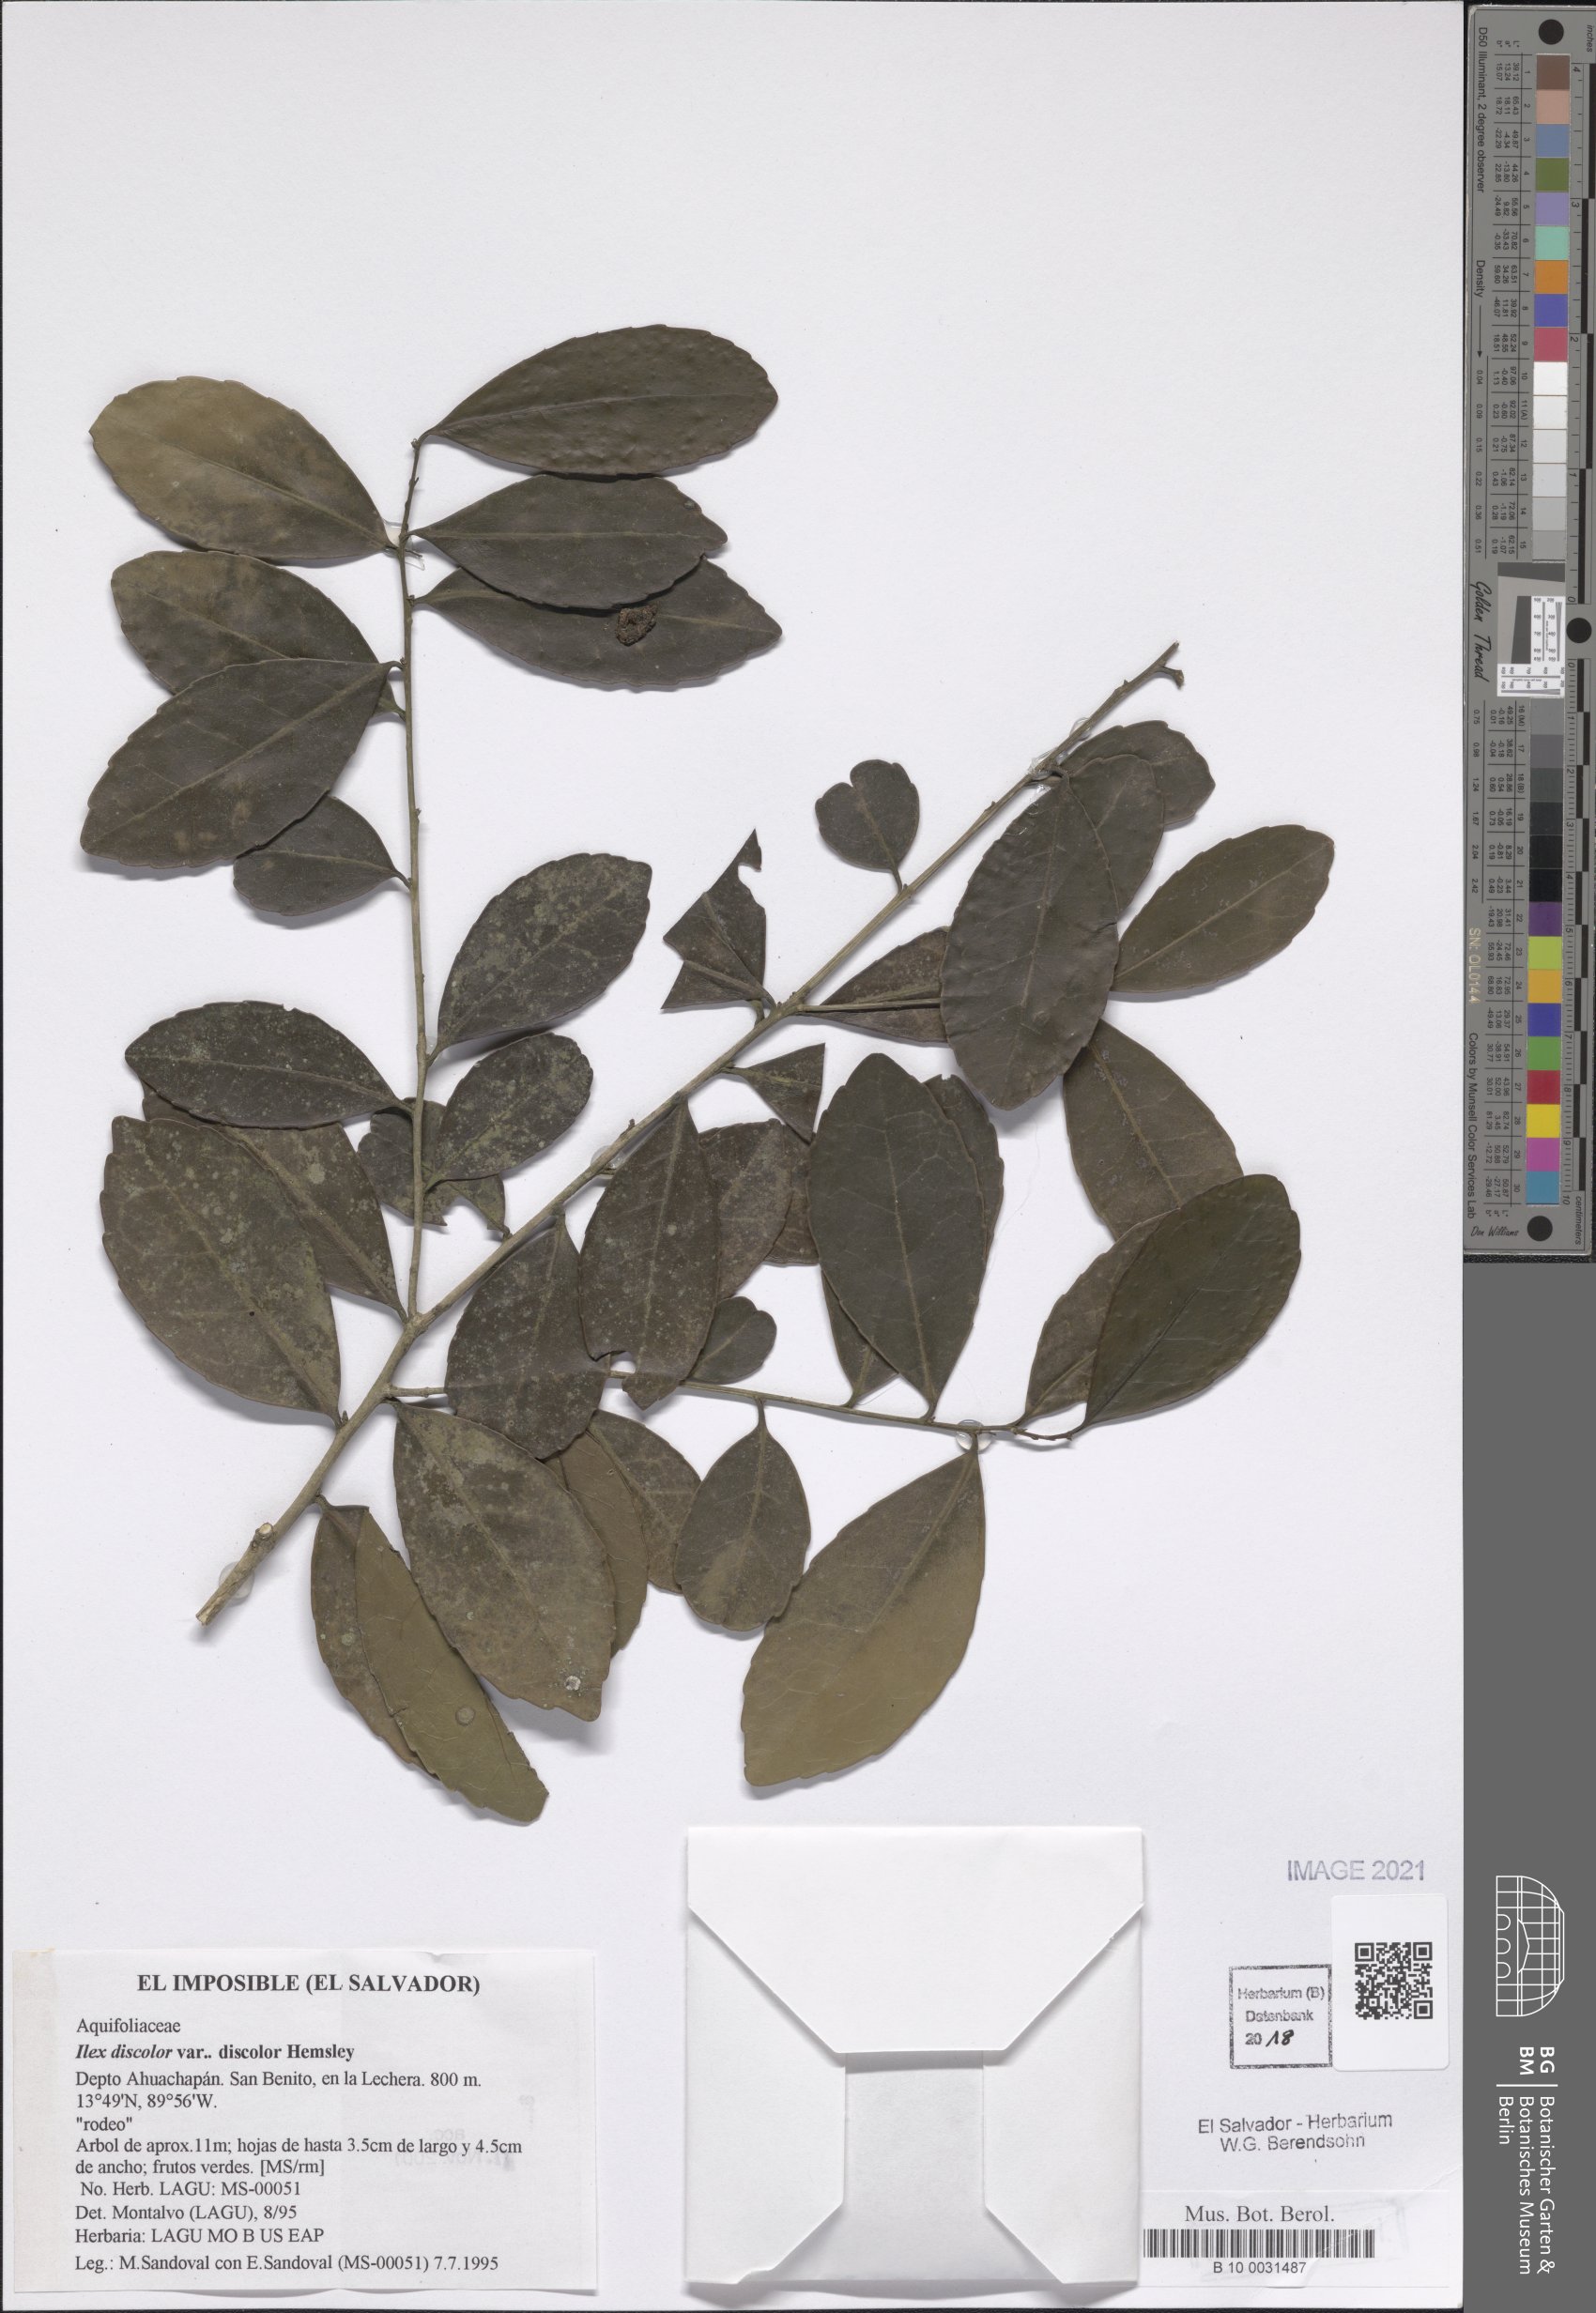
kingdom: Plantae
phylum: Tracheophyta
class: Magnoliopsida
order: Aquifoliales
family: Aquifoliaceae
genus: Ilex
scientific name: Ilex discolor
